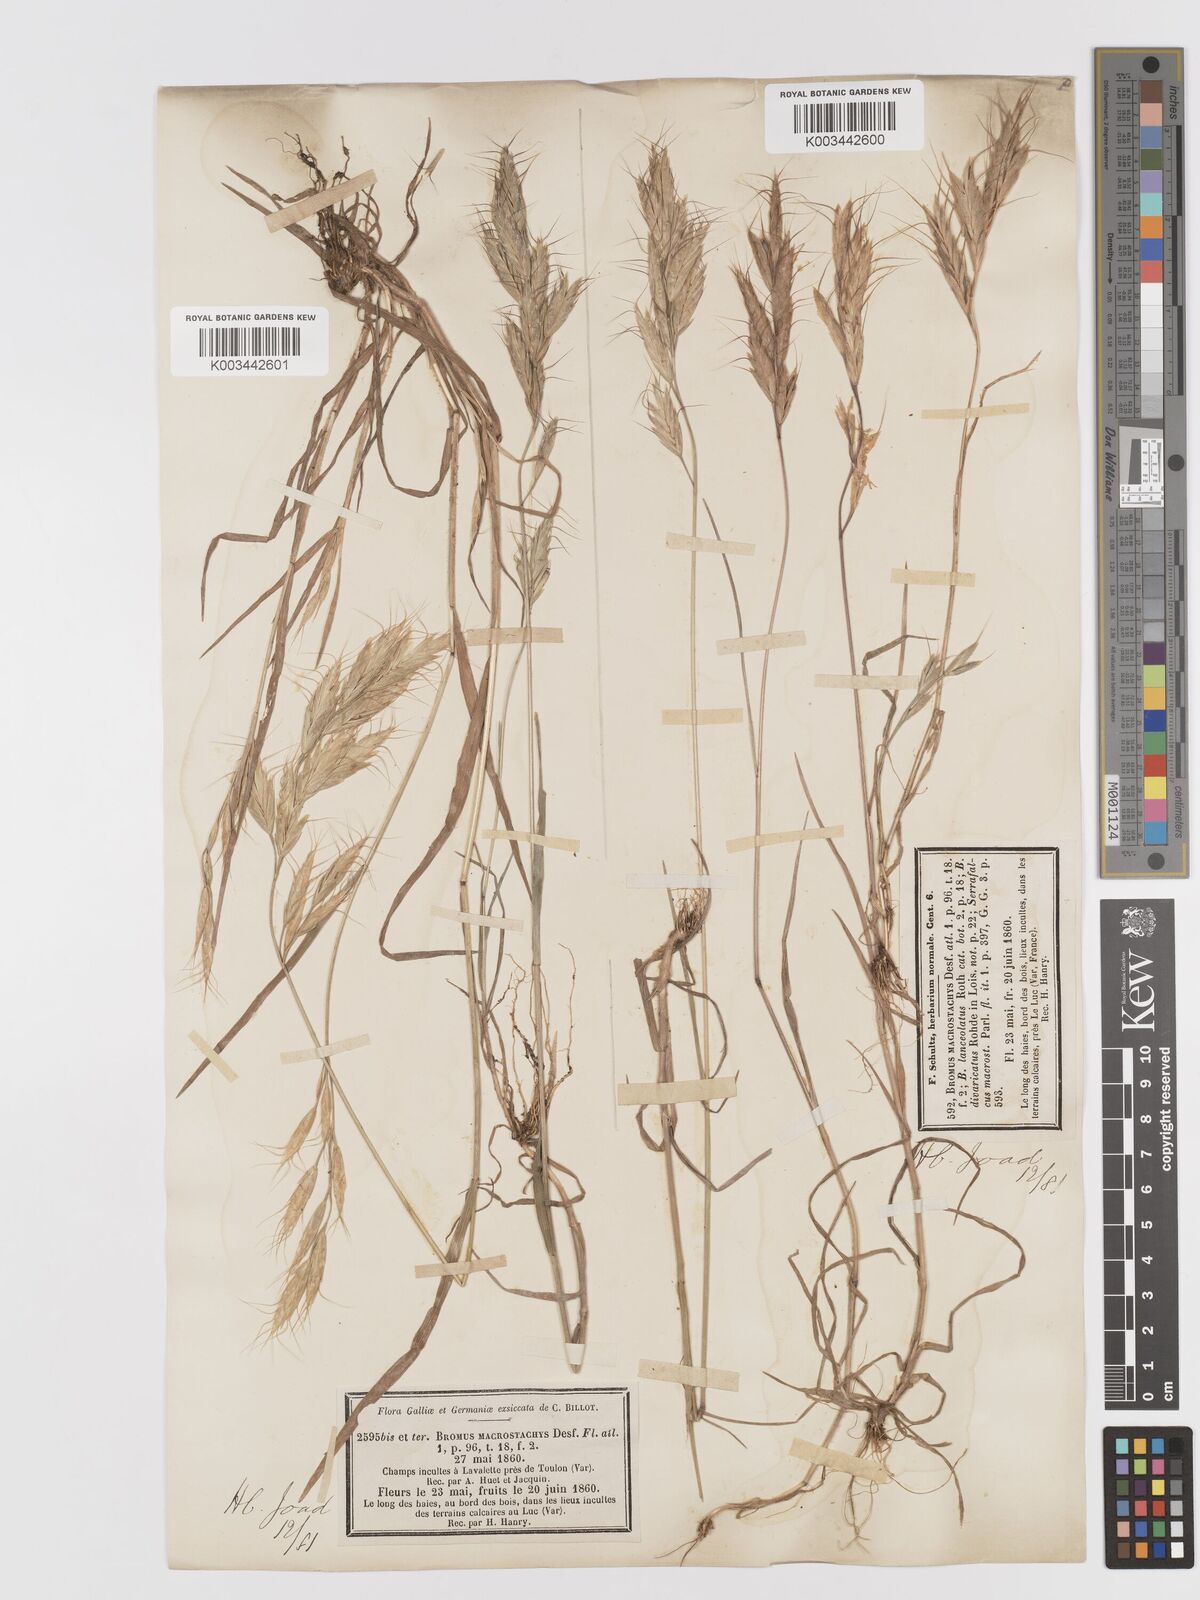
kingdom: Plantae
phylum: Tracheophyta
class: Liliopsida
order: Poales
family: Poaceae
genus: Bromus
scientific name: Bromus lanceolatus
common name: Mediterranean brome
